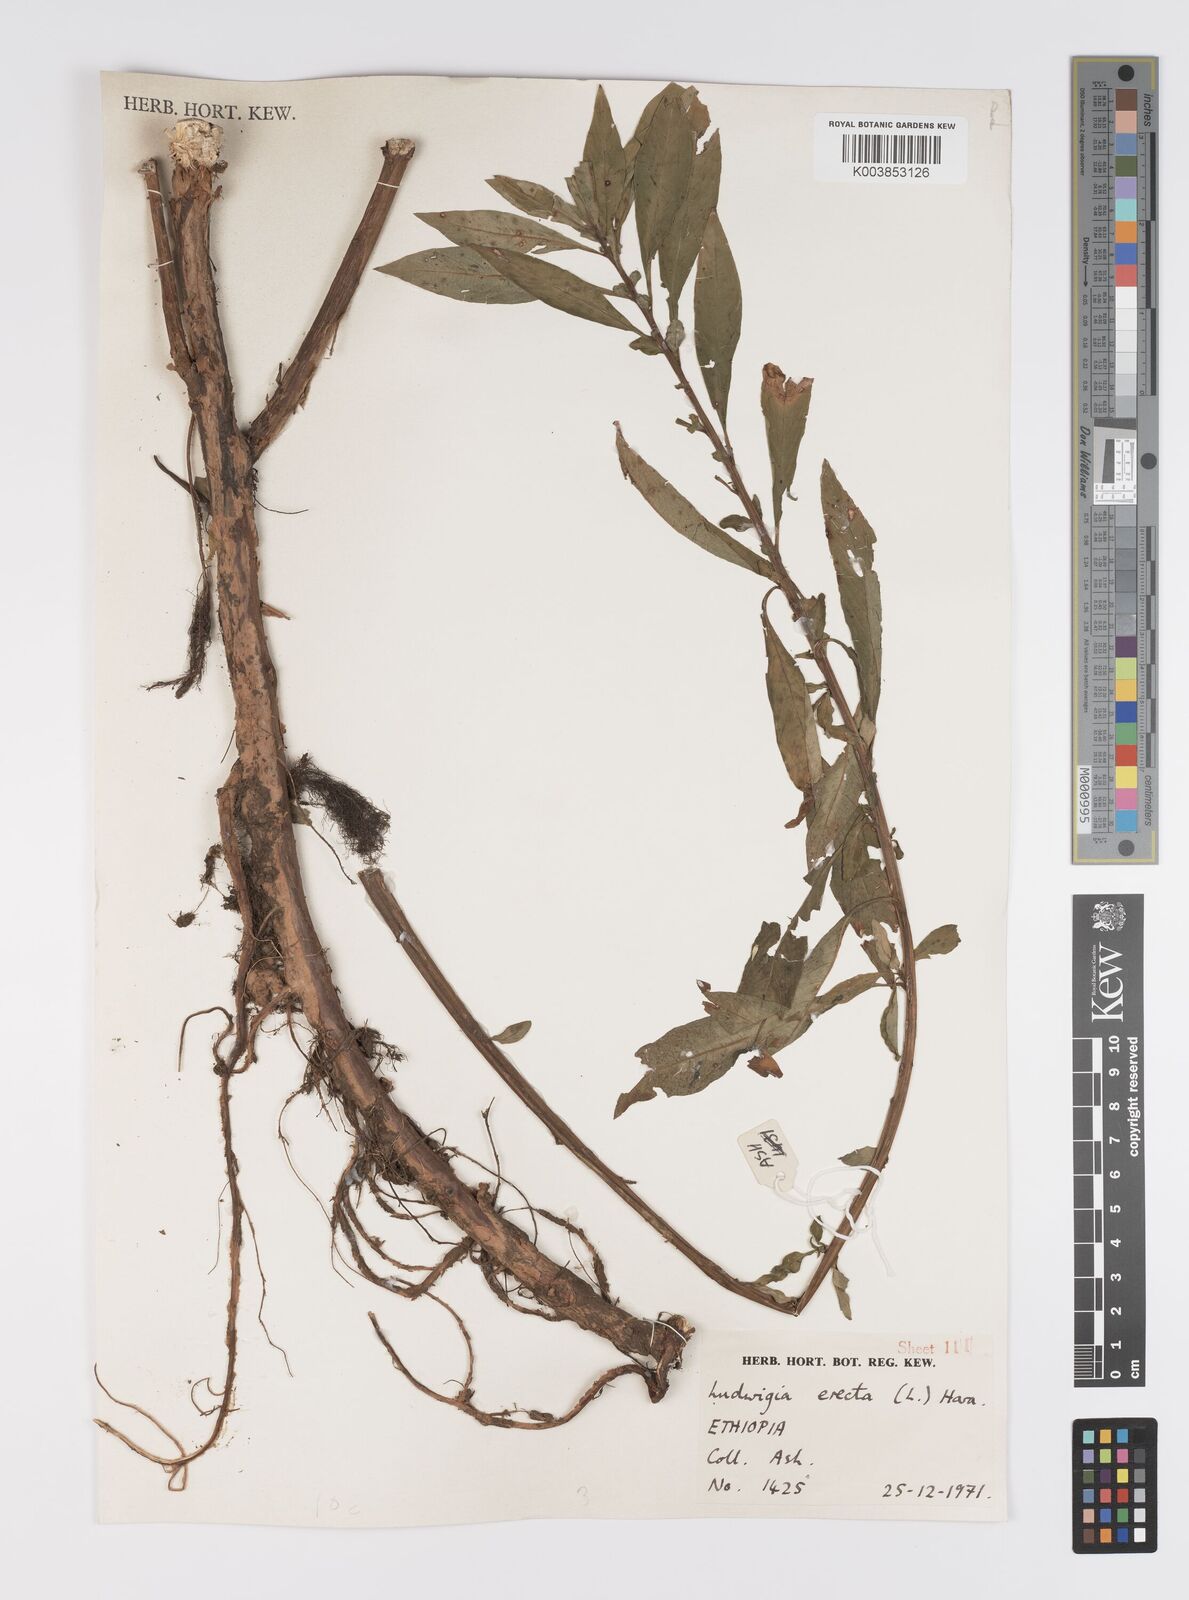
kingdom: Plantae
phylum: Tracheophyta
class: Magnoliopsida
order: Myrtales
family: Onagraceae
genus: Ludwigia
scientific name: Ludwigia erecta
